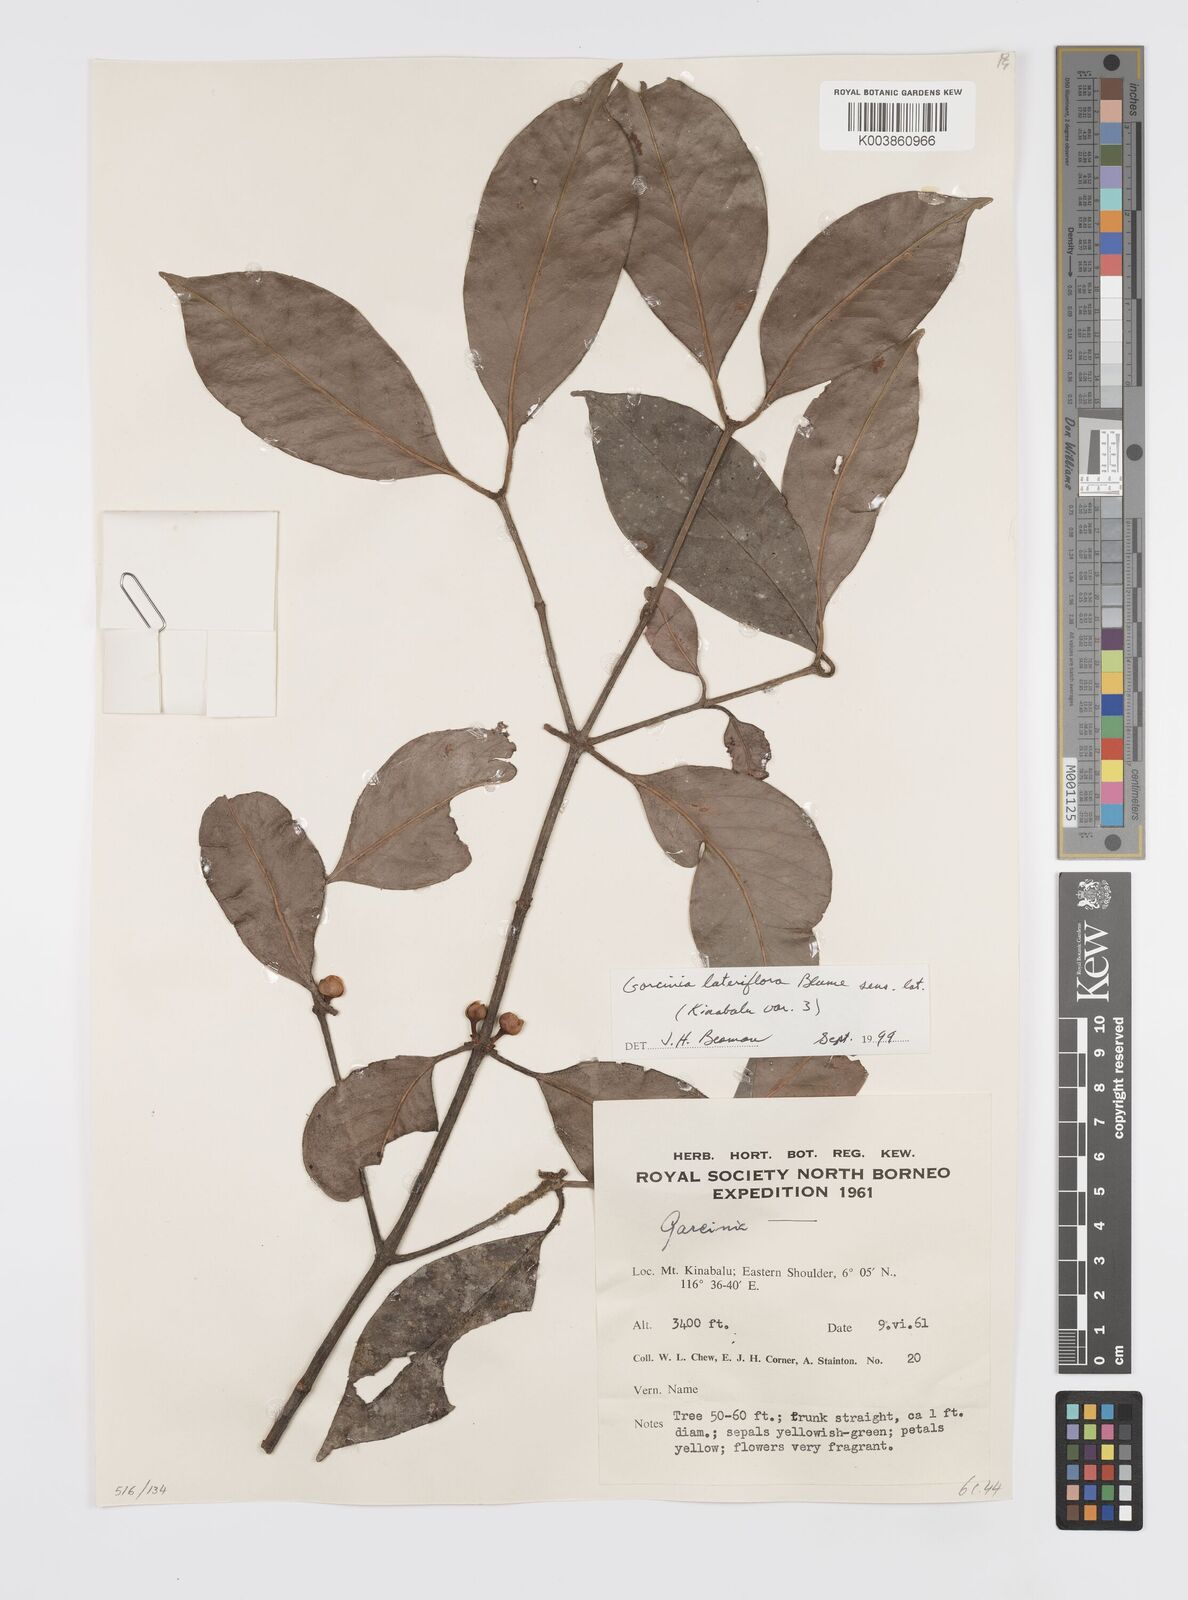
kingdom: Plantae
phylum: Tracheophyta
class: Magnoliopsida
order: Malpighiales
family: Clusiaceae
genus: Garcinia
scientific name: Garcinia lateriflora
